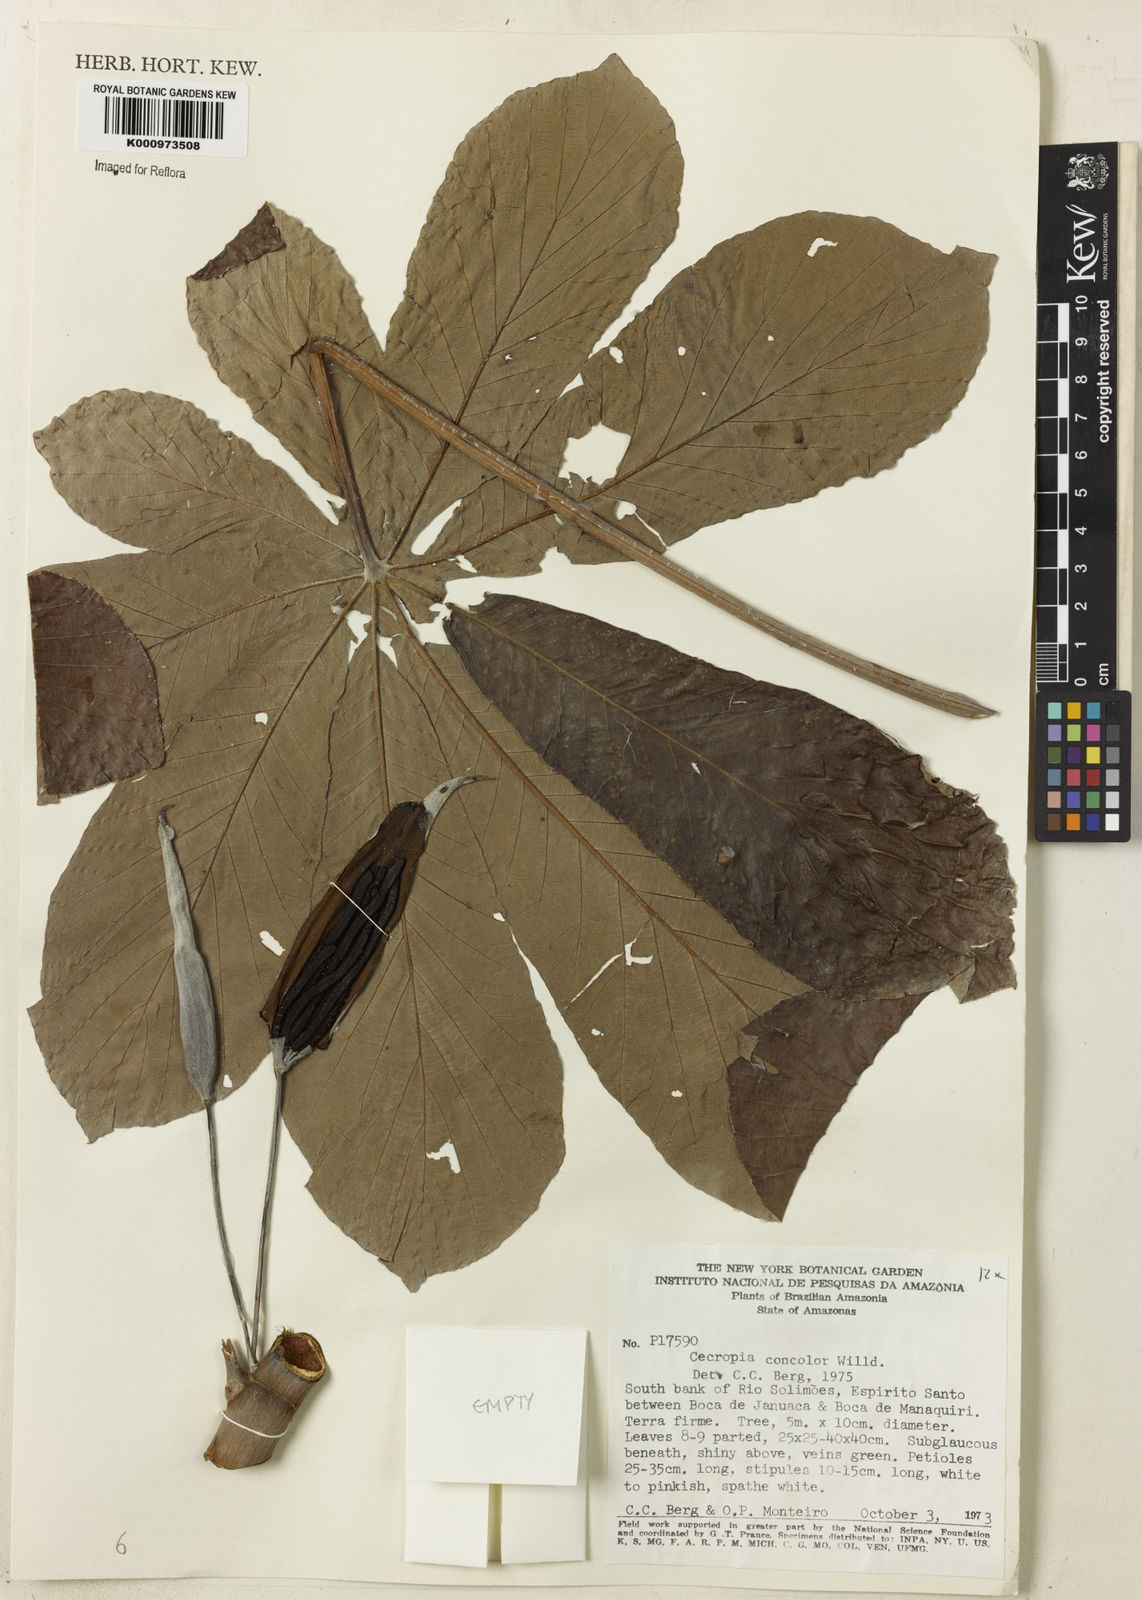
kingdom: Plantae
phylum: Tracheophyta
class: Magnoliopsida
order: Rosales
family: Urticaceae
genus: Cecropia
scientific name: Cecropia concolor
